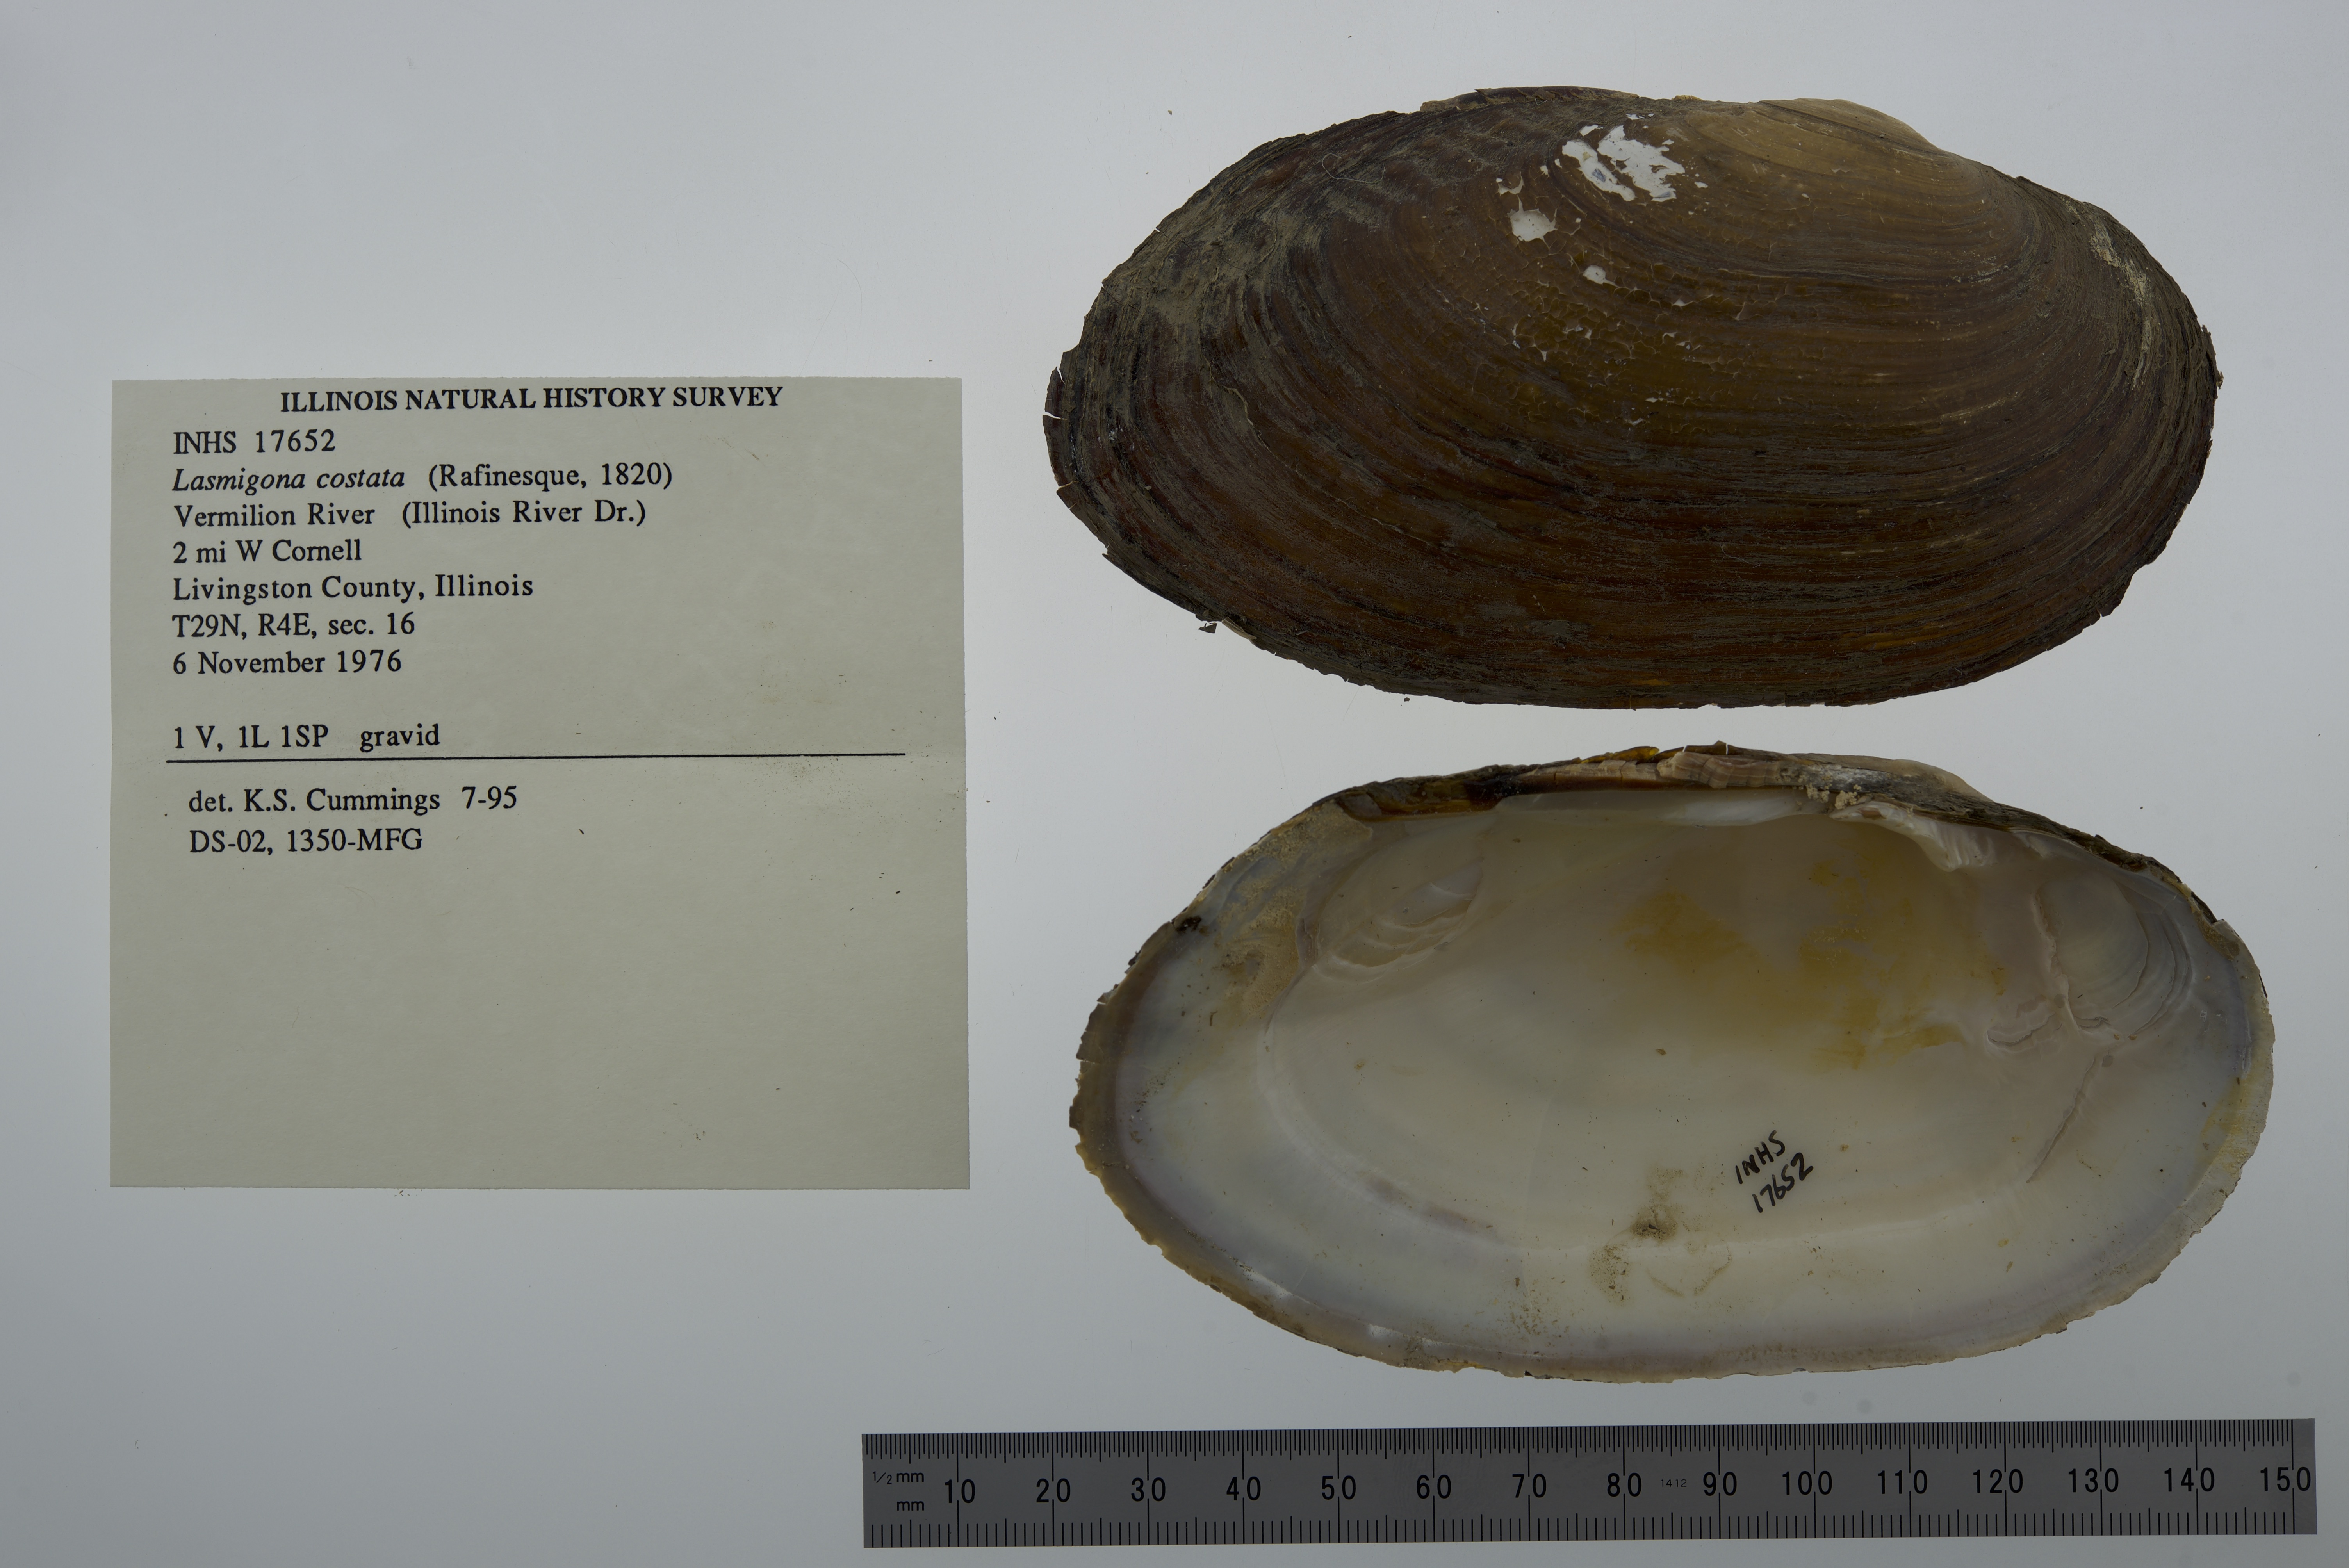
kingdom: Animalia
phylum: Mollusca
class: Bivalvia
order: Unionida
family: Unionidae
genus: Lasmigona
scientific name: Lasmigona costata
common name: Flutedshell
